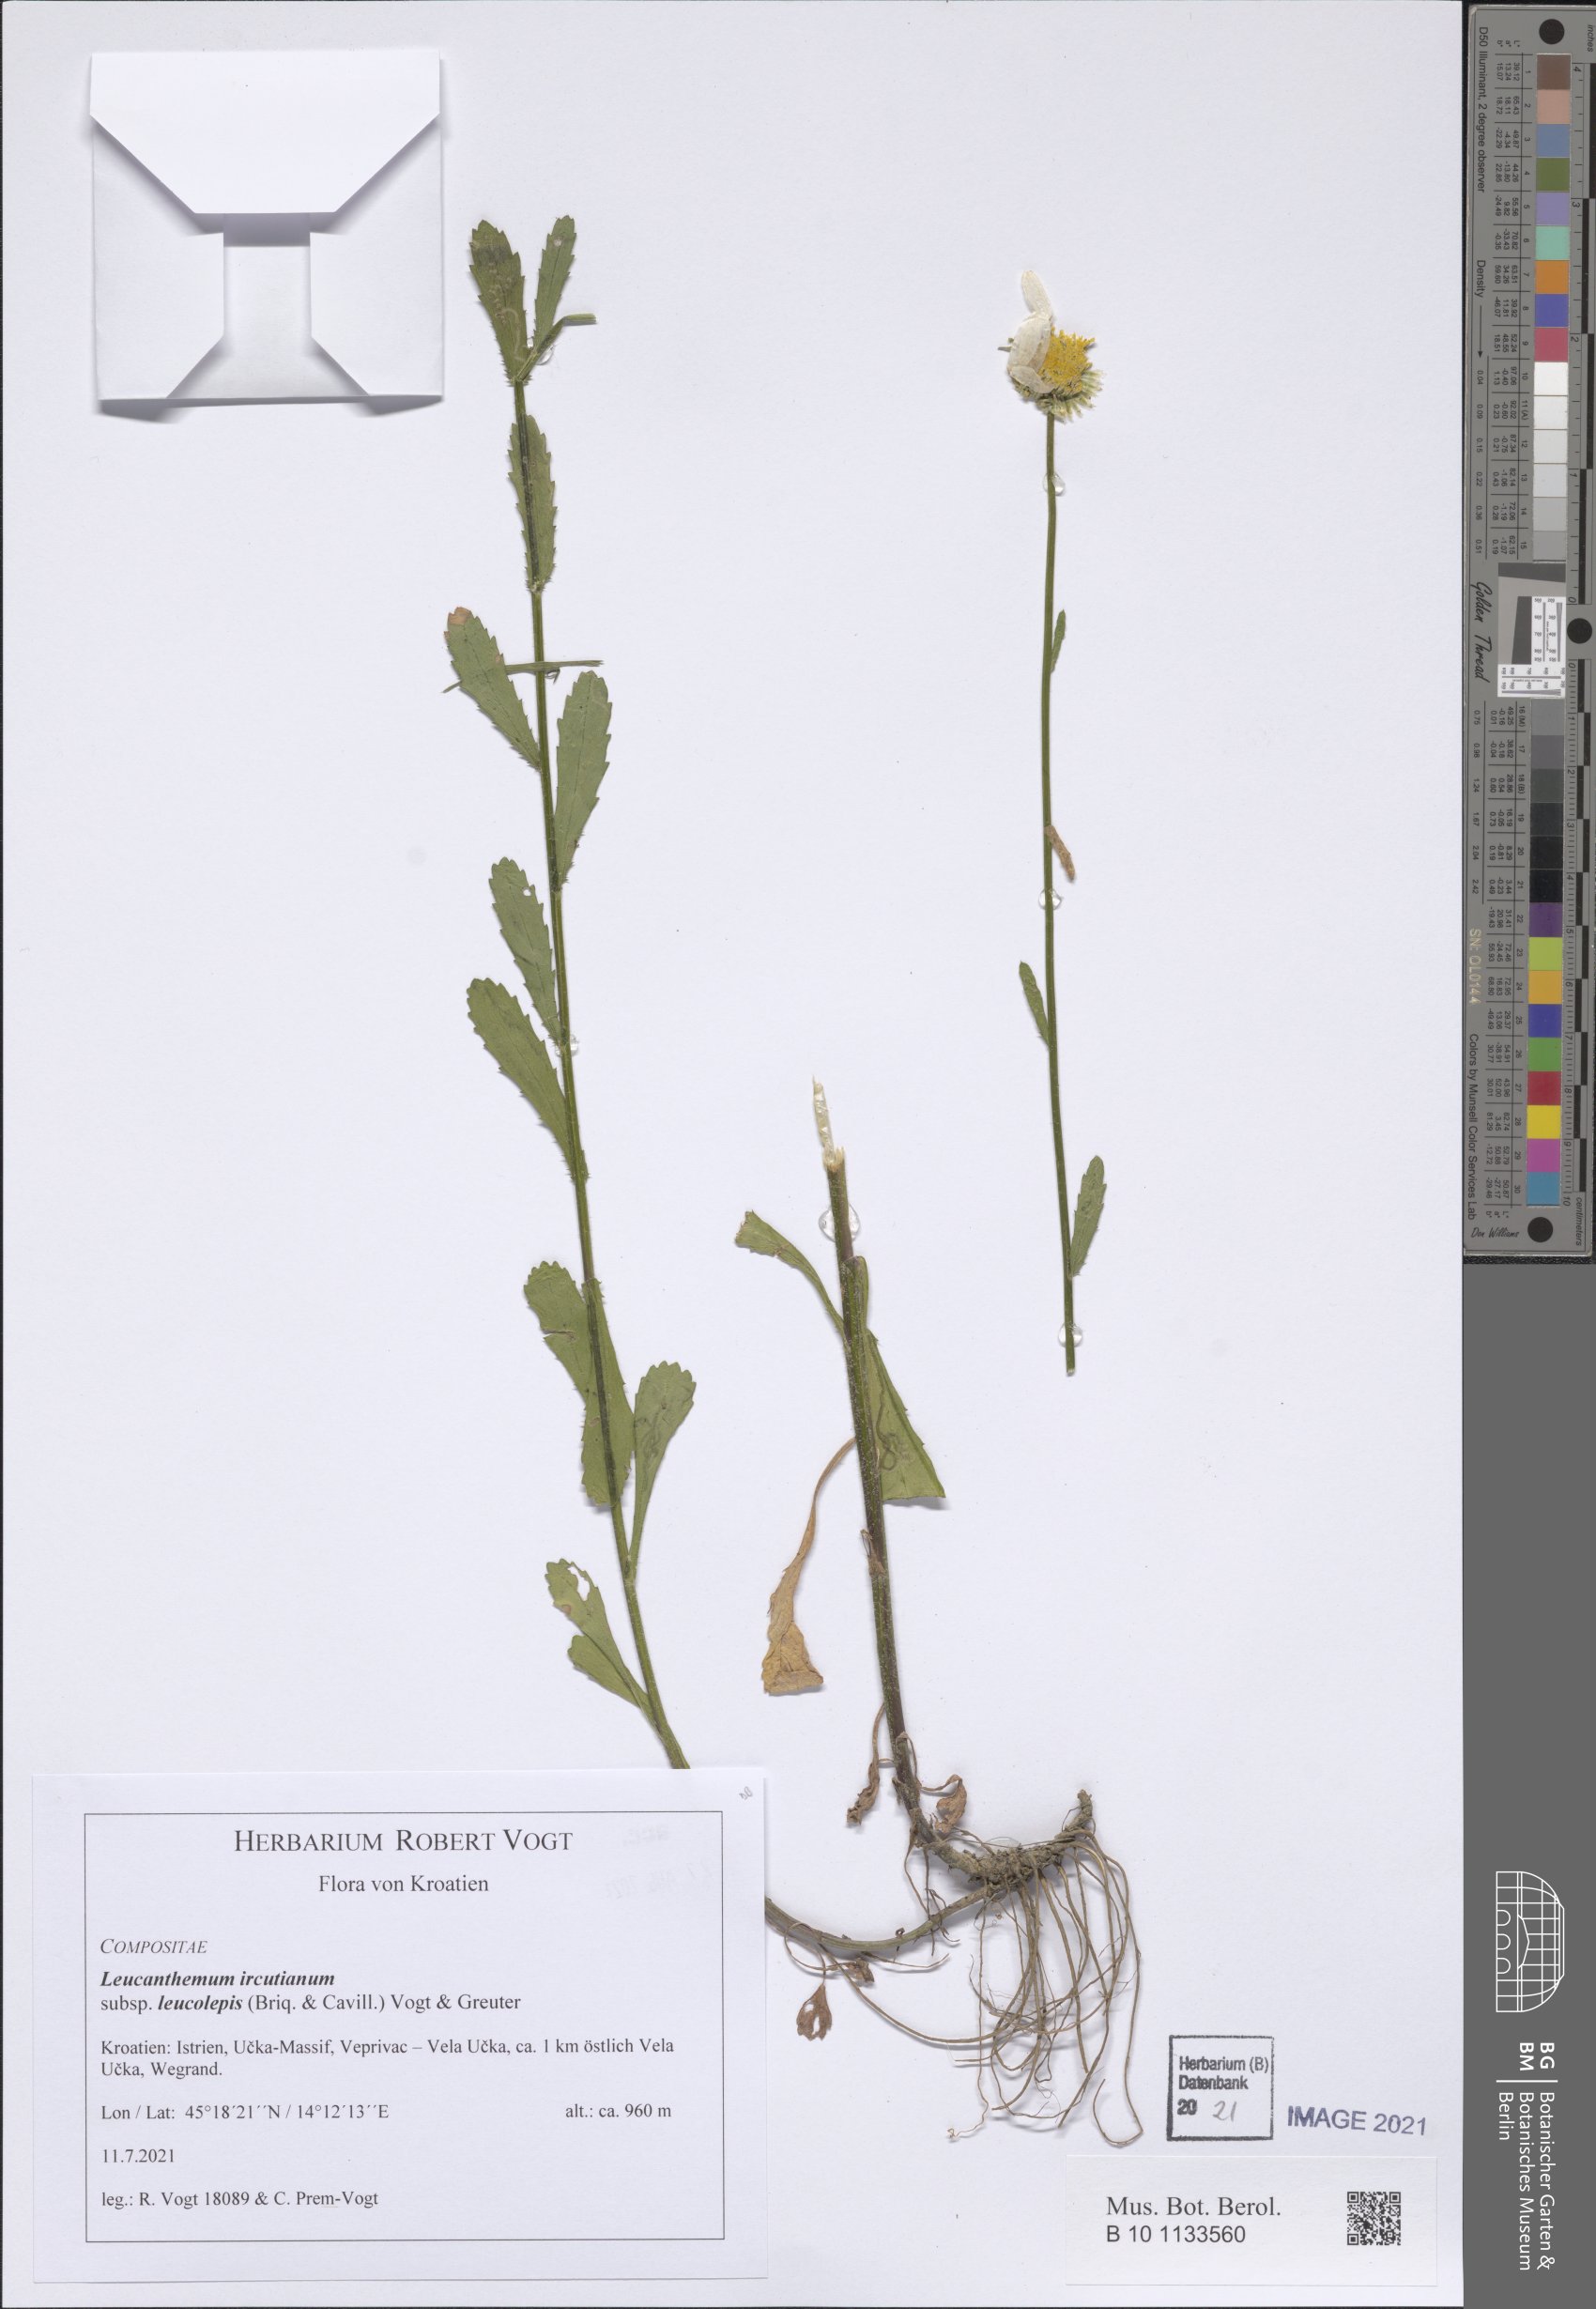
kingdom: Plantae
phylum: Tracheophyta
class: Magnoliopsida
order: Asterales
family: Asteraceae
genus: Leucanthemum
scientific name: Leucanthemum ircutianum
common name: Daisy
